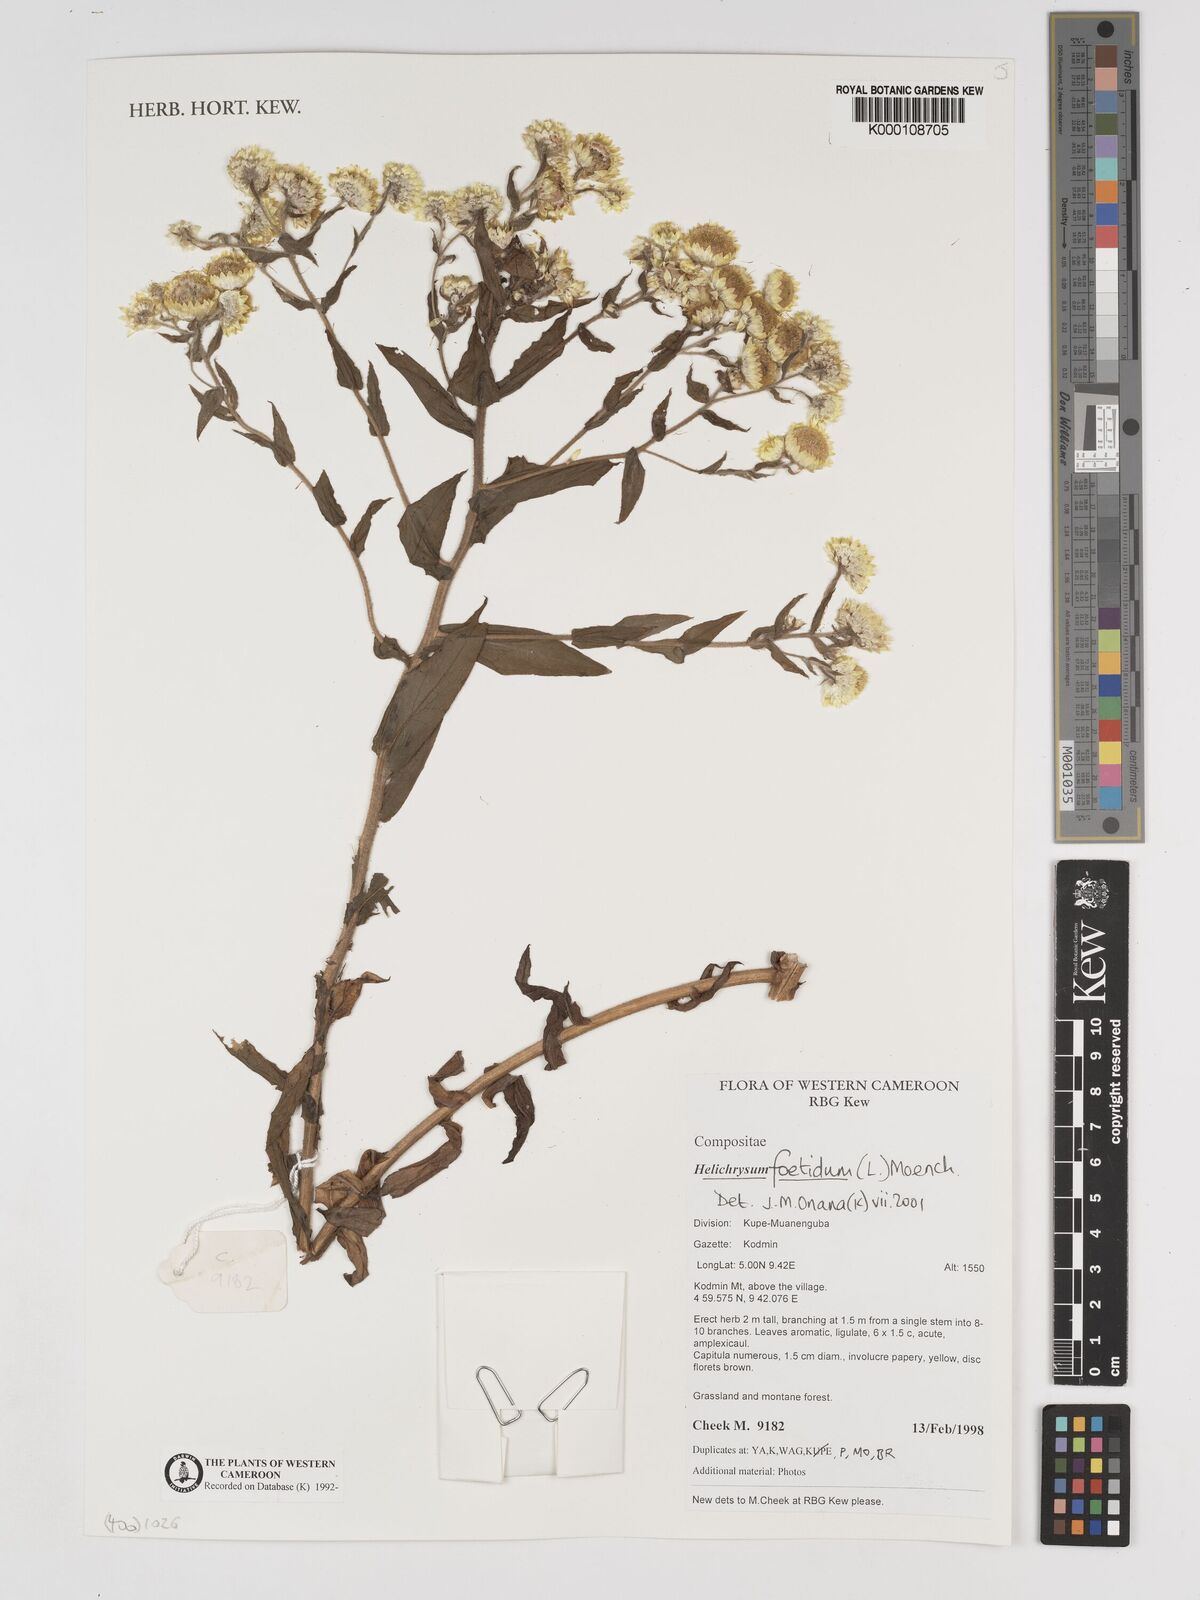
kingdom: Plantae
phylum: Tracheophyta
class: Magnoliopsida
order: Asterales
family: Asteraceae
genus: Helichrysum
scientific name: Helichrysum foetidum
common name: Stinking everlasting
